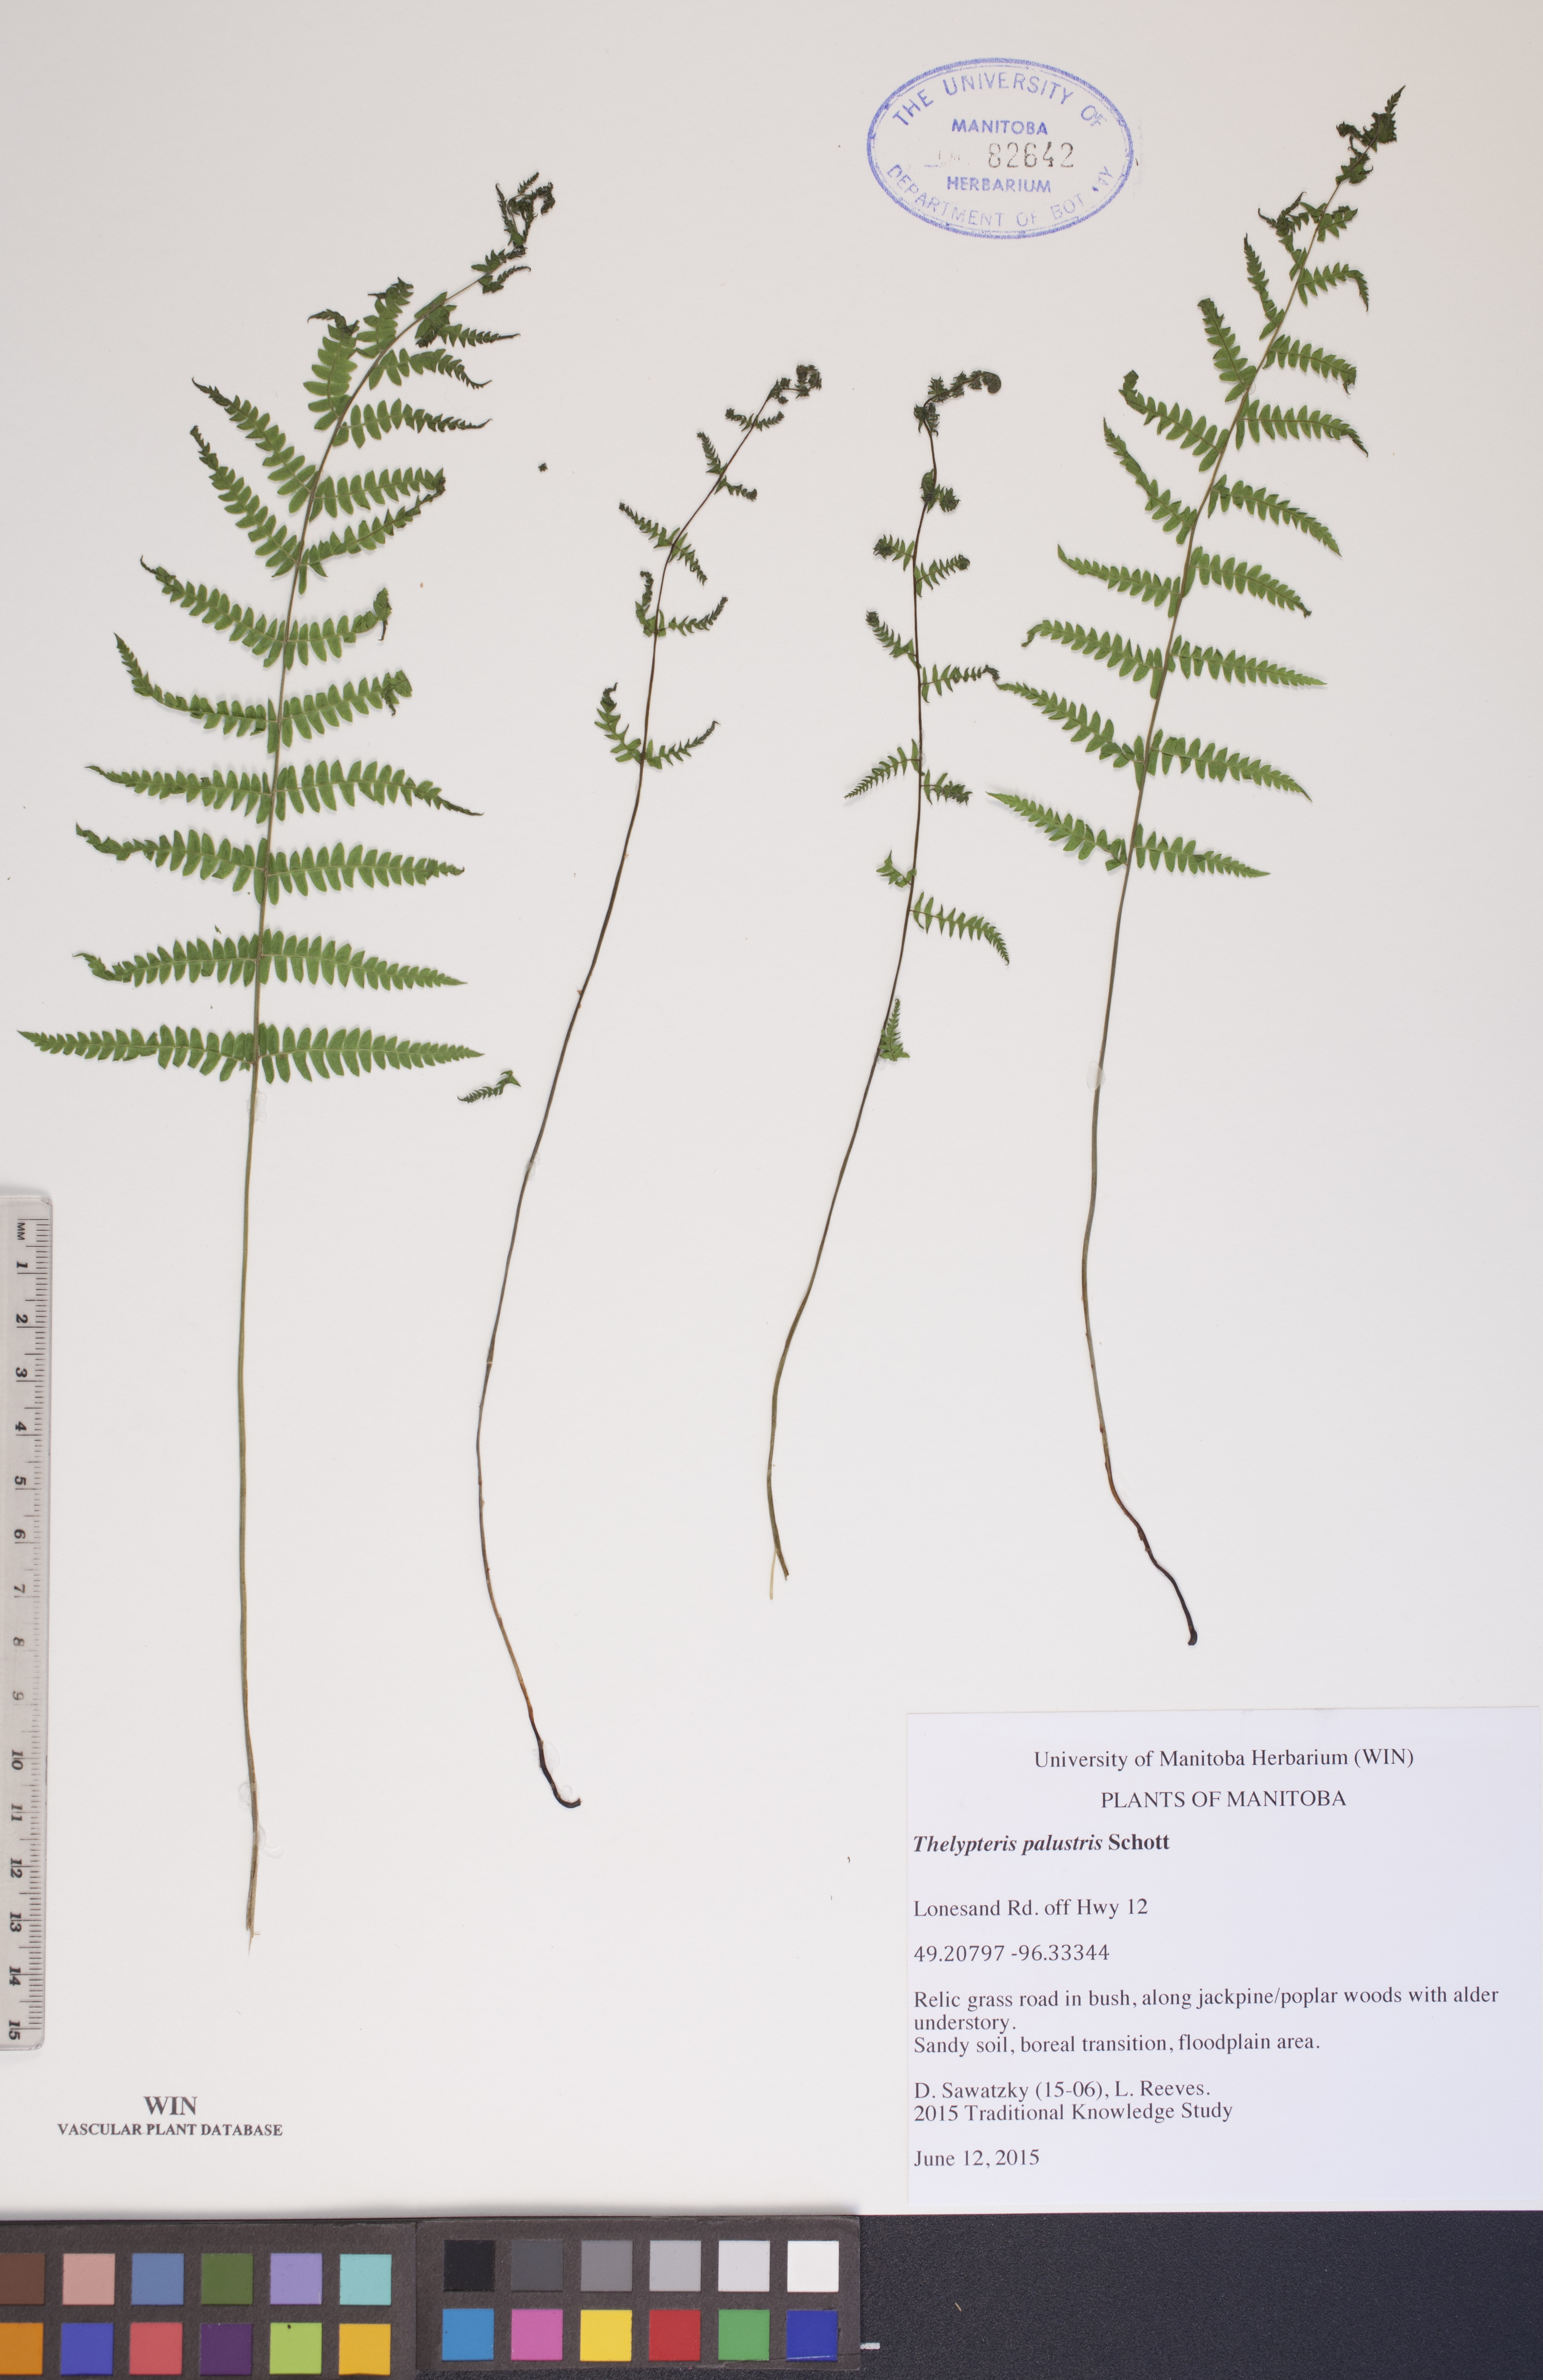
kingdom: Plantae
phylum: Tracheophyta
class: Polypodiopsida
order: Polypodiales
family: Thelypteridaceae
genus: Thelypteris
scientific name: Thelypteris palustris
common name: Marsh fern
